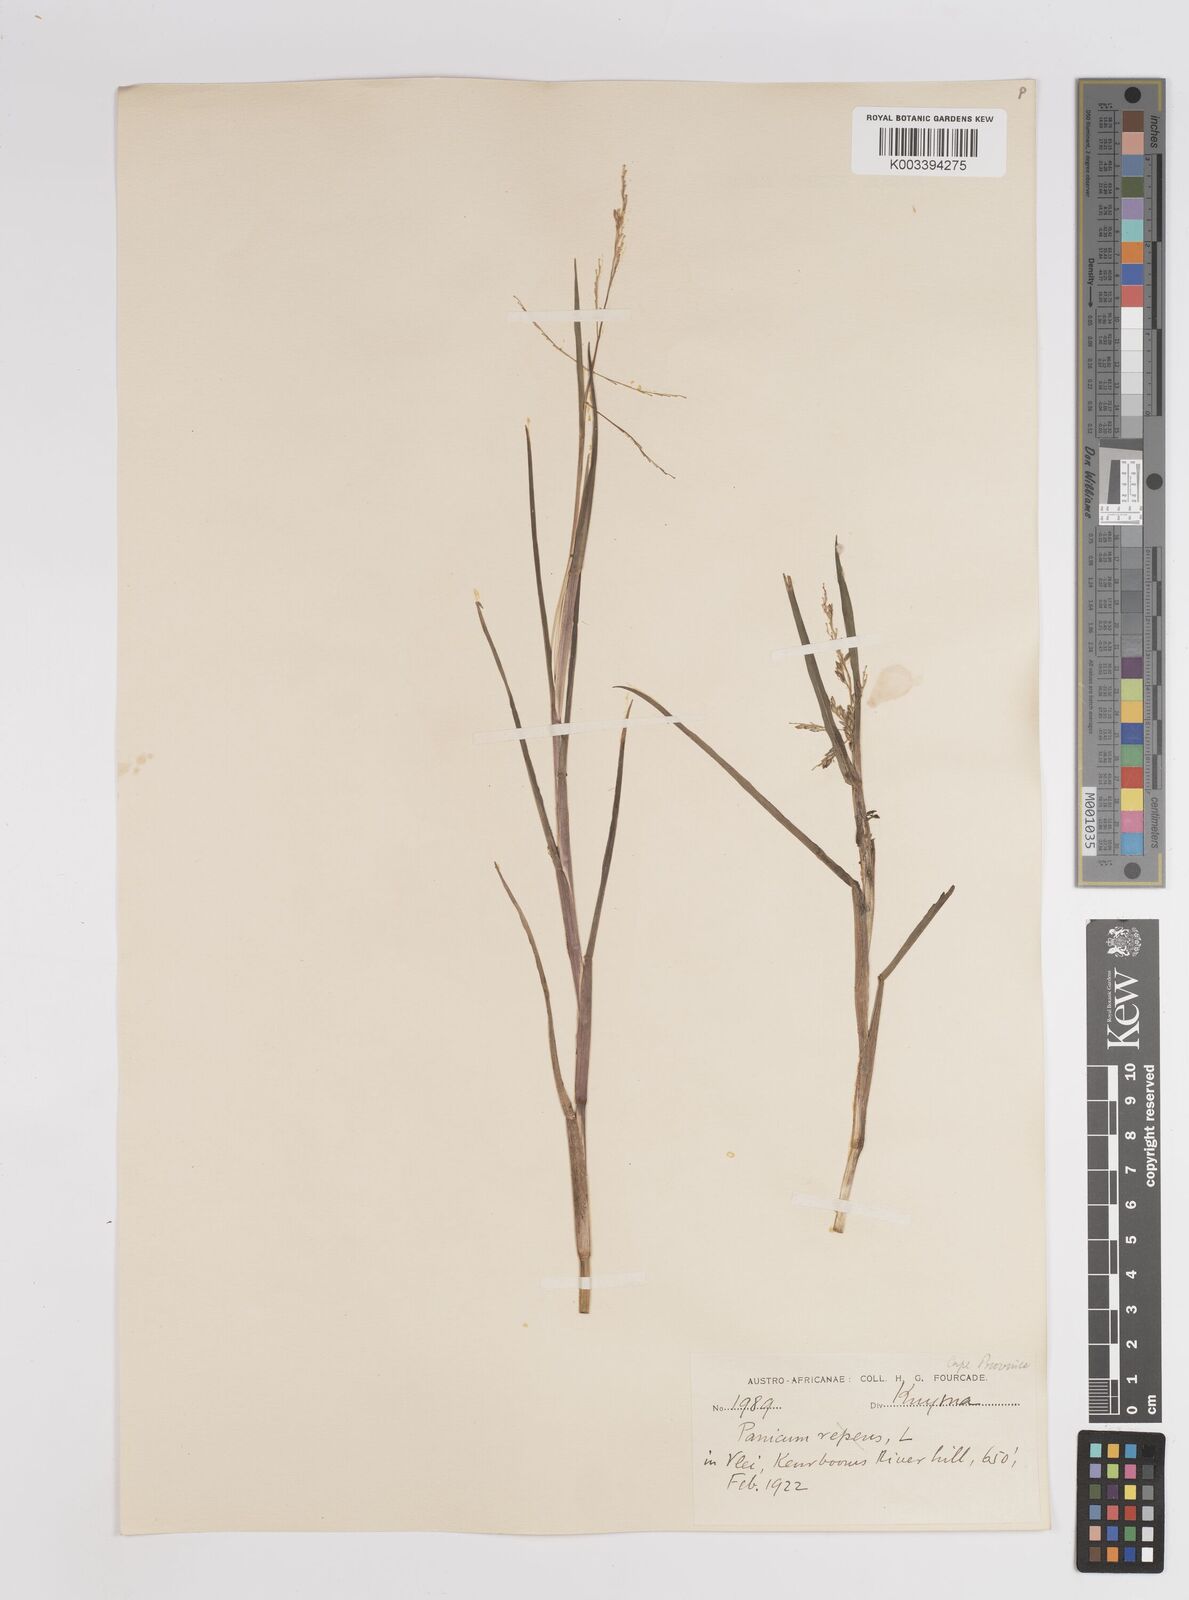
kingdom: Plantae
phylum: Tracheophyta
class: Liliopsida
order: Poales
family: Poaceae
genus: Panicum
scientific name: Panicum subalbidum
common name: Elbow buffalo grass
